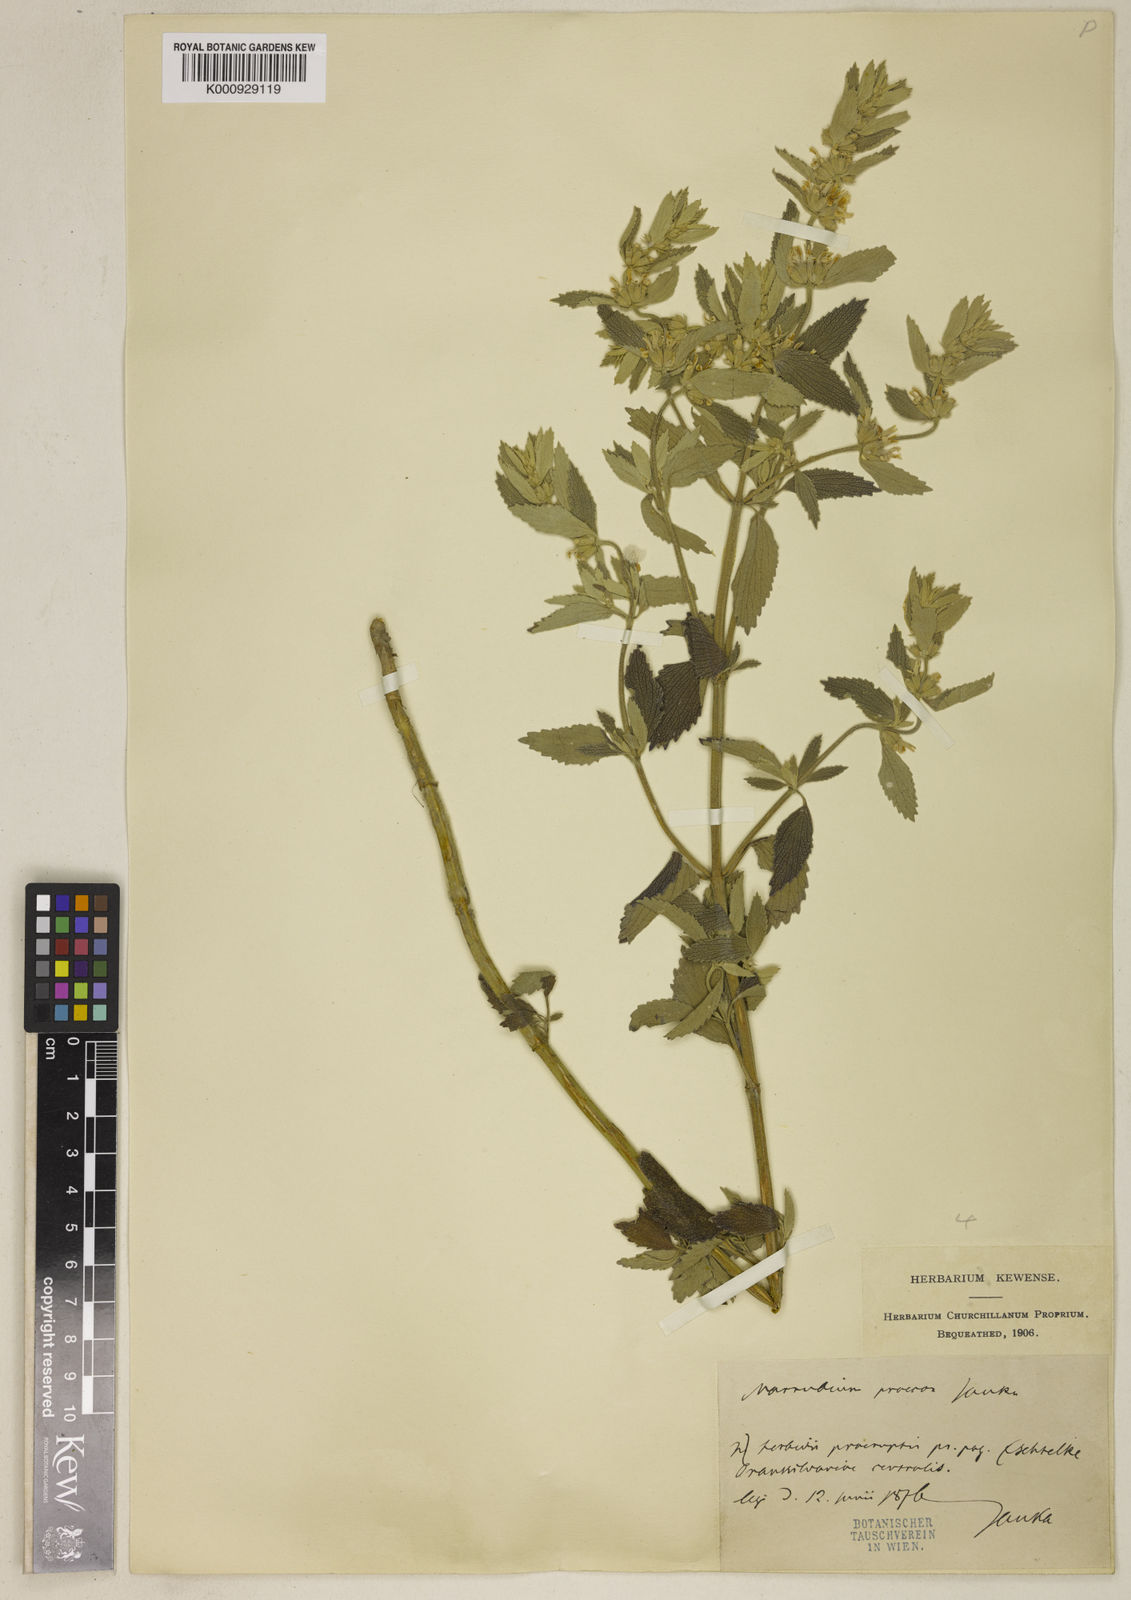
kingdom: Plantae
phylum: Tracheophyta
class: Magnoliopsida
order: Lamiales
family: Lamiaceae
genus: Marrubium
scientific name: Marrubium pestalozzae
